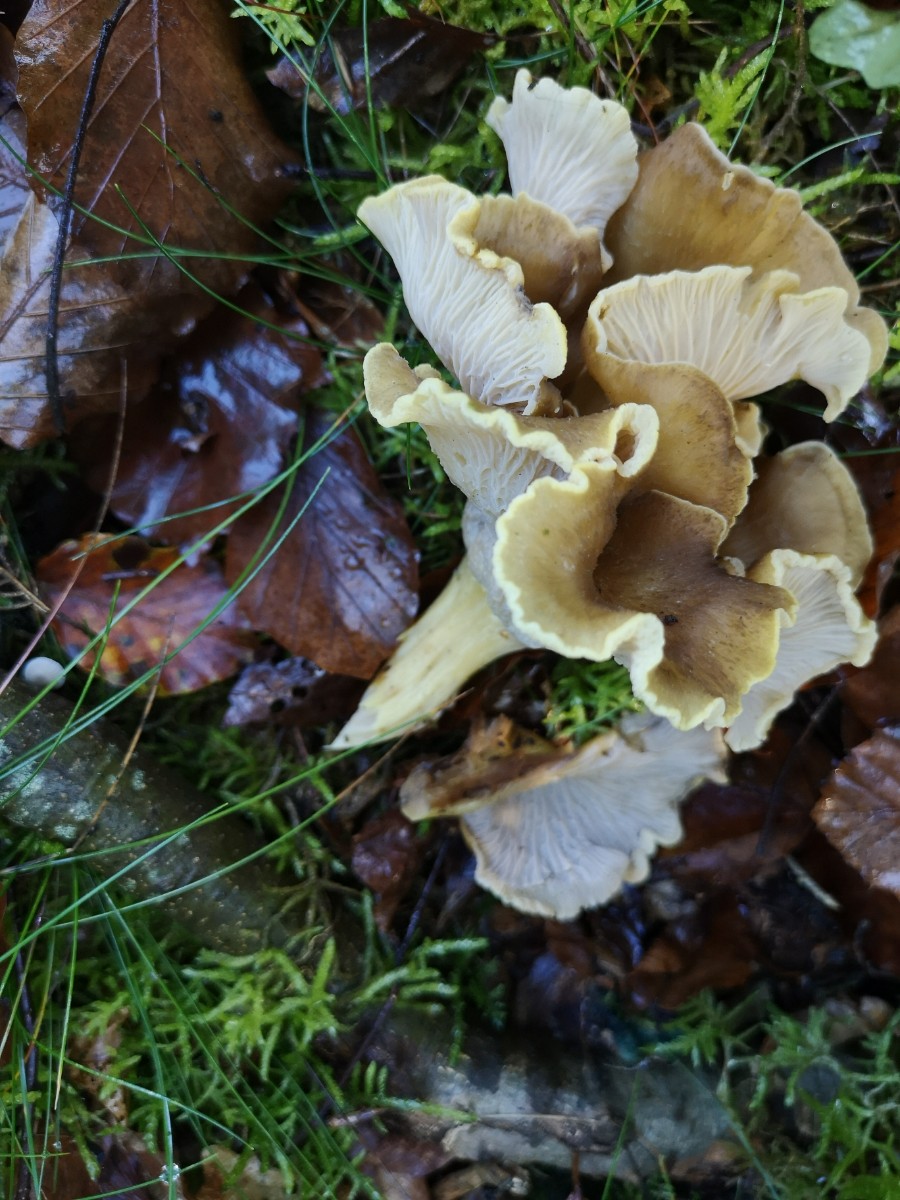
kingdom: Fungi
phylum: Basidiomycota
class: Agaricomycetes
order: Cantharellales
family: Hydnaceae
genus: Cantharellus
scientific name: Cantharellus melanoxeros
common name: sværtende kantarel
